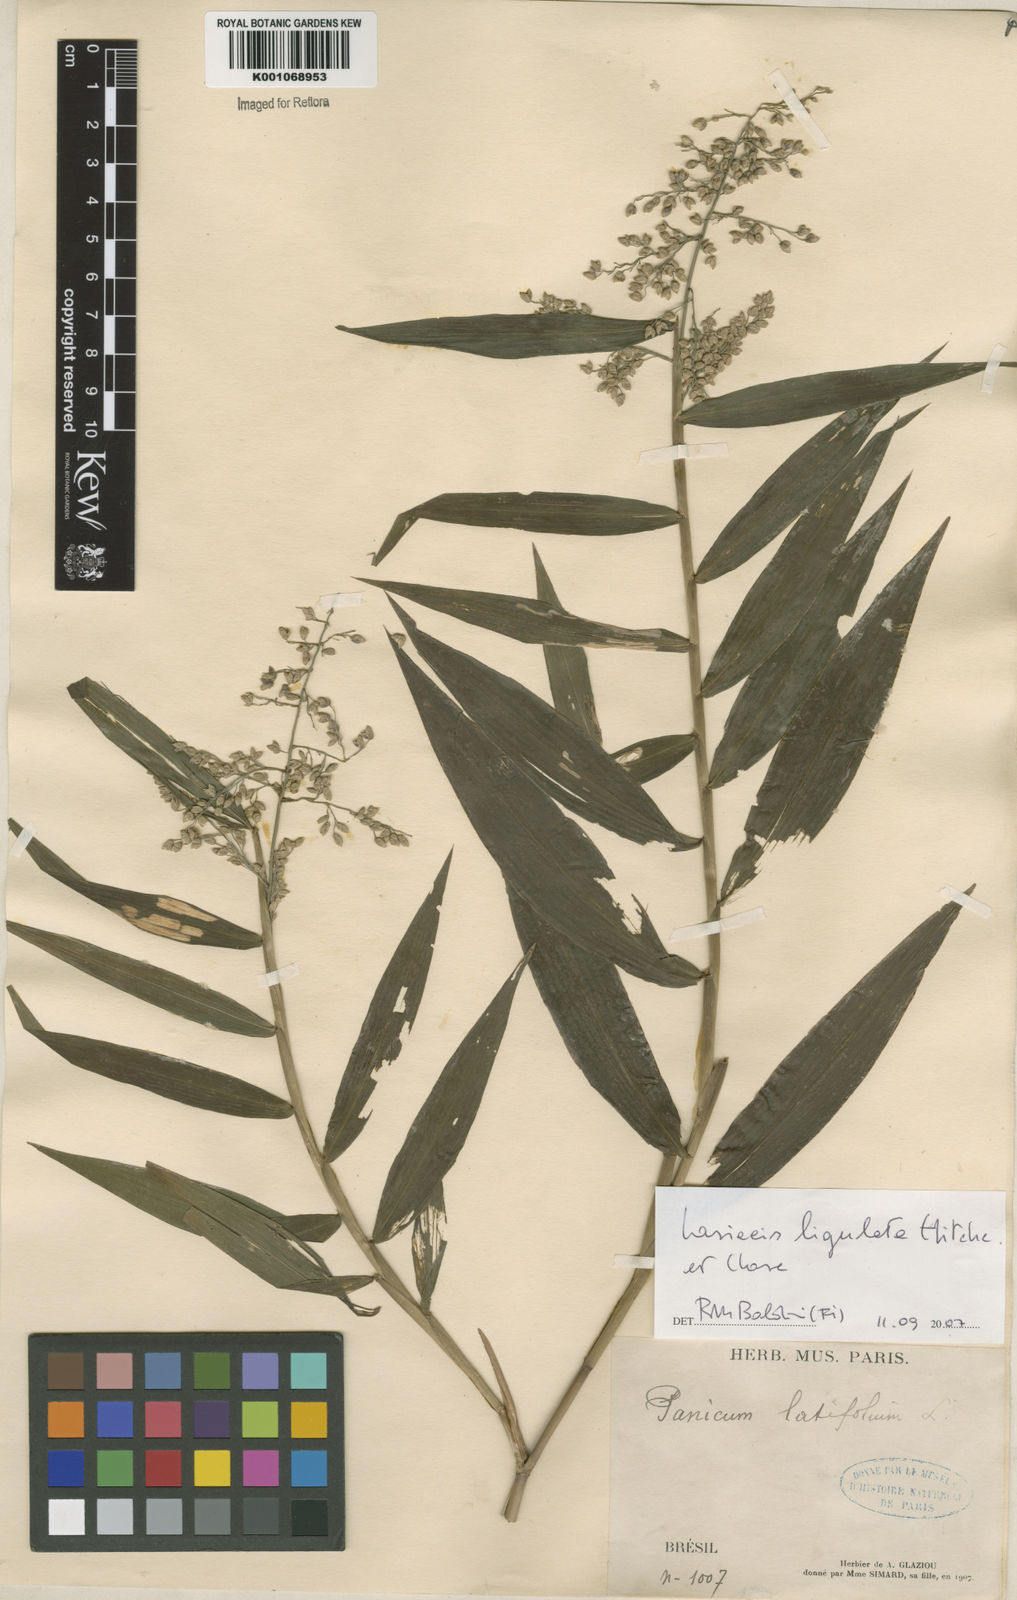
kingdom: Plantae
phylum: Tracheophyta
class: Liliopsida
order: Poales
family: Poaceae
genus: Lasiacis
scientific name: Lasiacis ligulata
